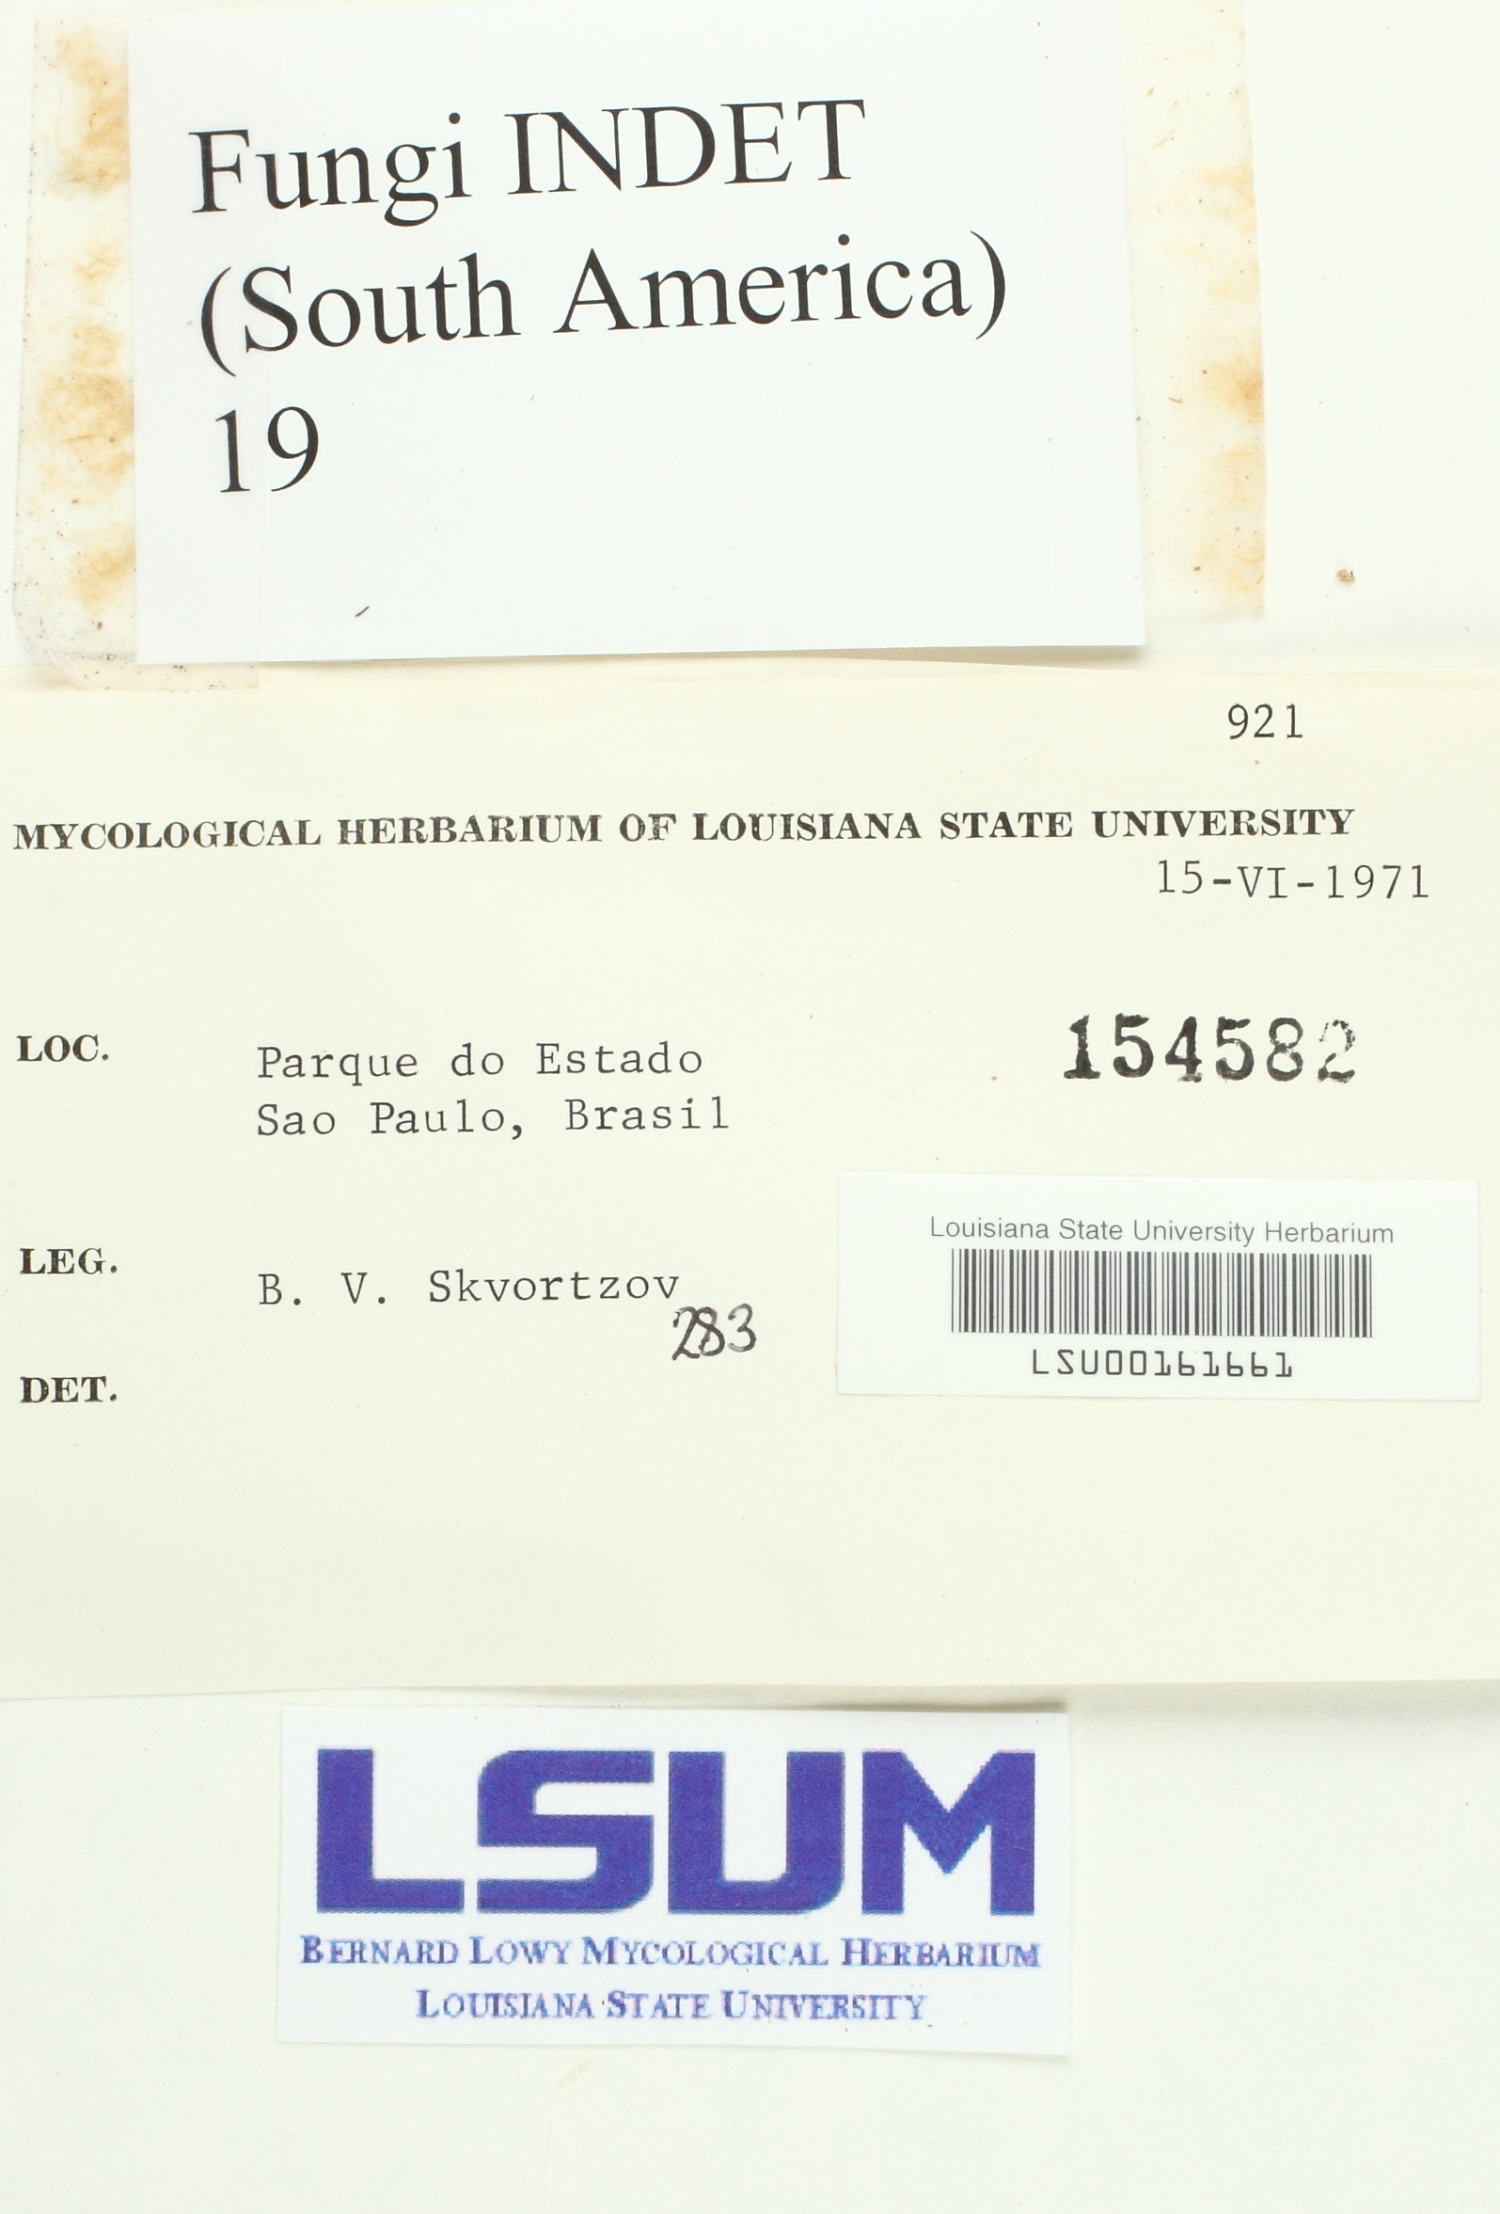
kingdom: Fungi
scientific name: Fungi
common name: Fungi
